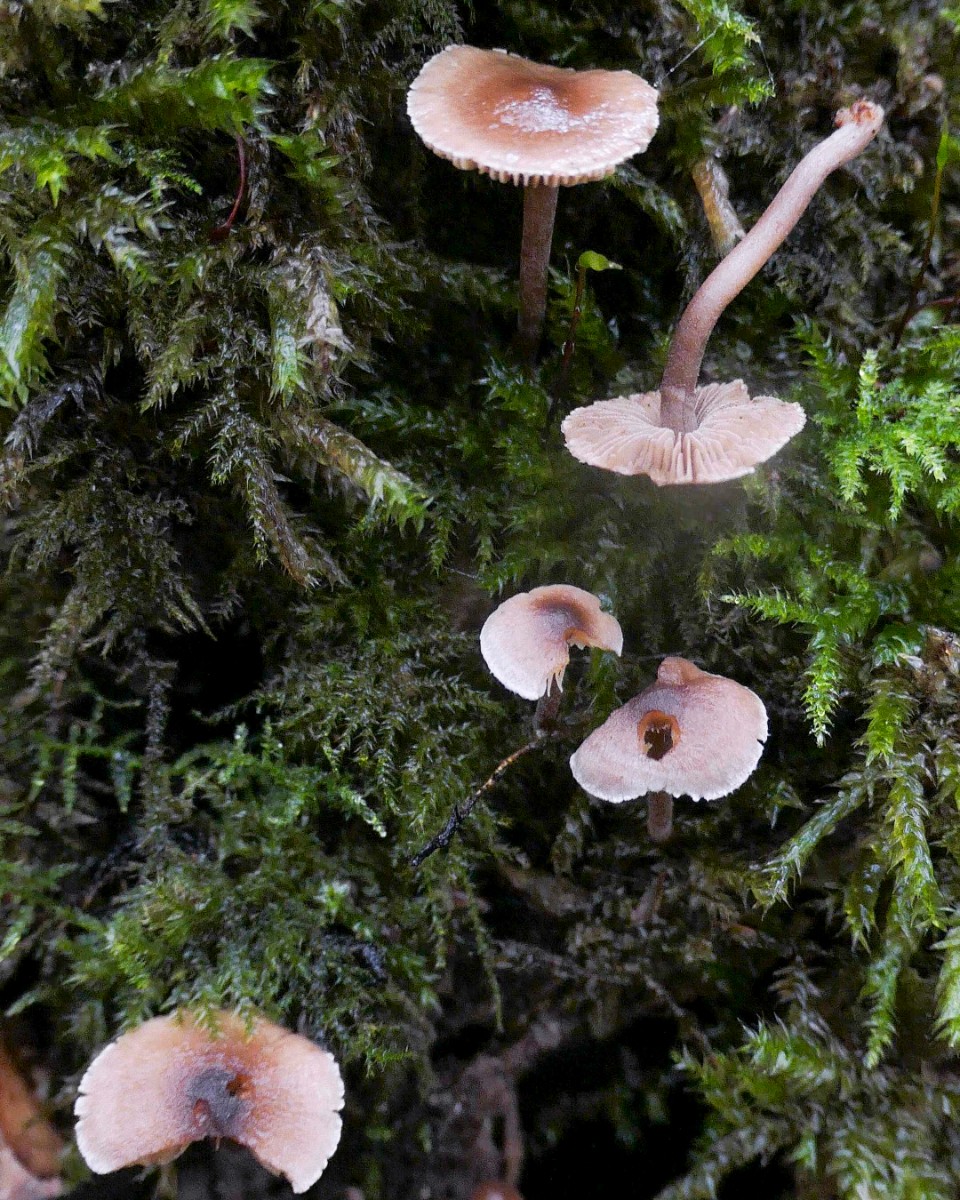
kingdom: Fungi
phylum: Basidiomycota
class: Agaricomycetes
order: Agaricales
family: Inocybaceae
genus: Inocybe
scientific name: Inocybe petiginosa
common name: liden trævlhat
